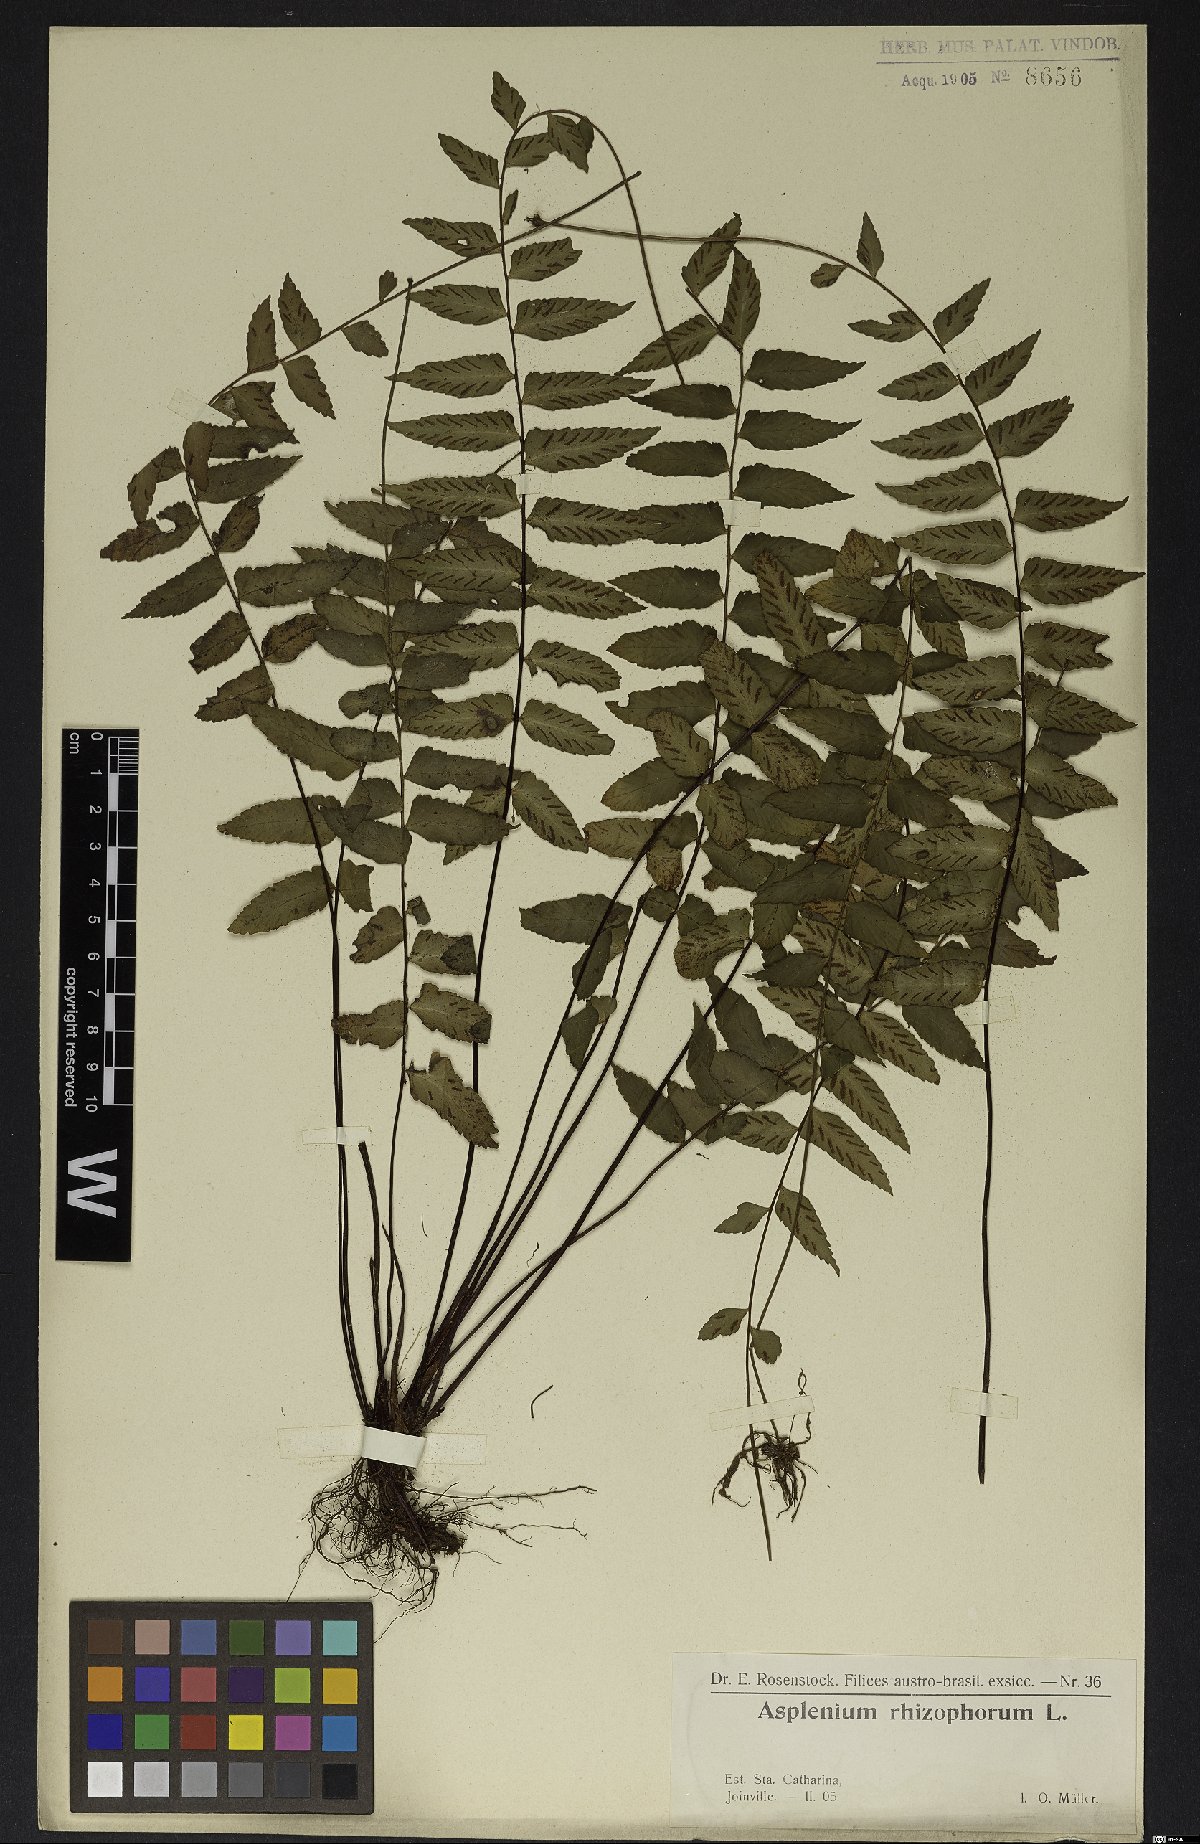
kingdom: Plantae
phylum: Tracheophyta
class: Polypodiopsida
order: Polypodiales
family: Aspleniaceae
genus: Asplenium
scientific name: Asplenium radicans
